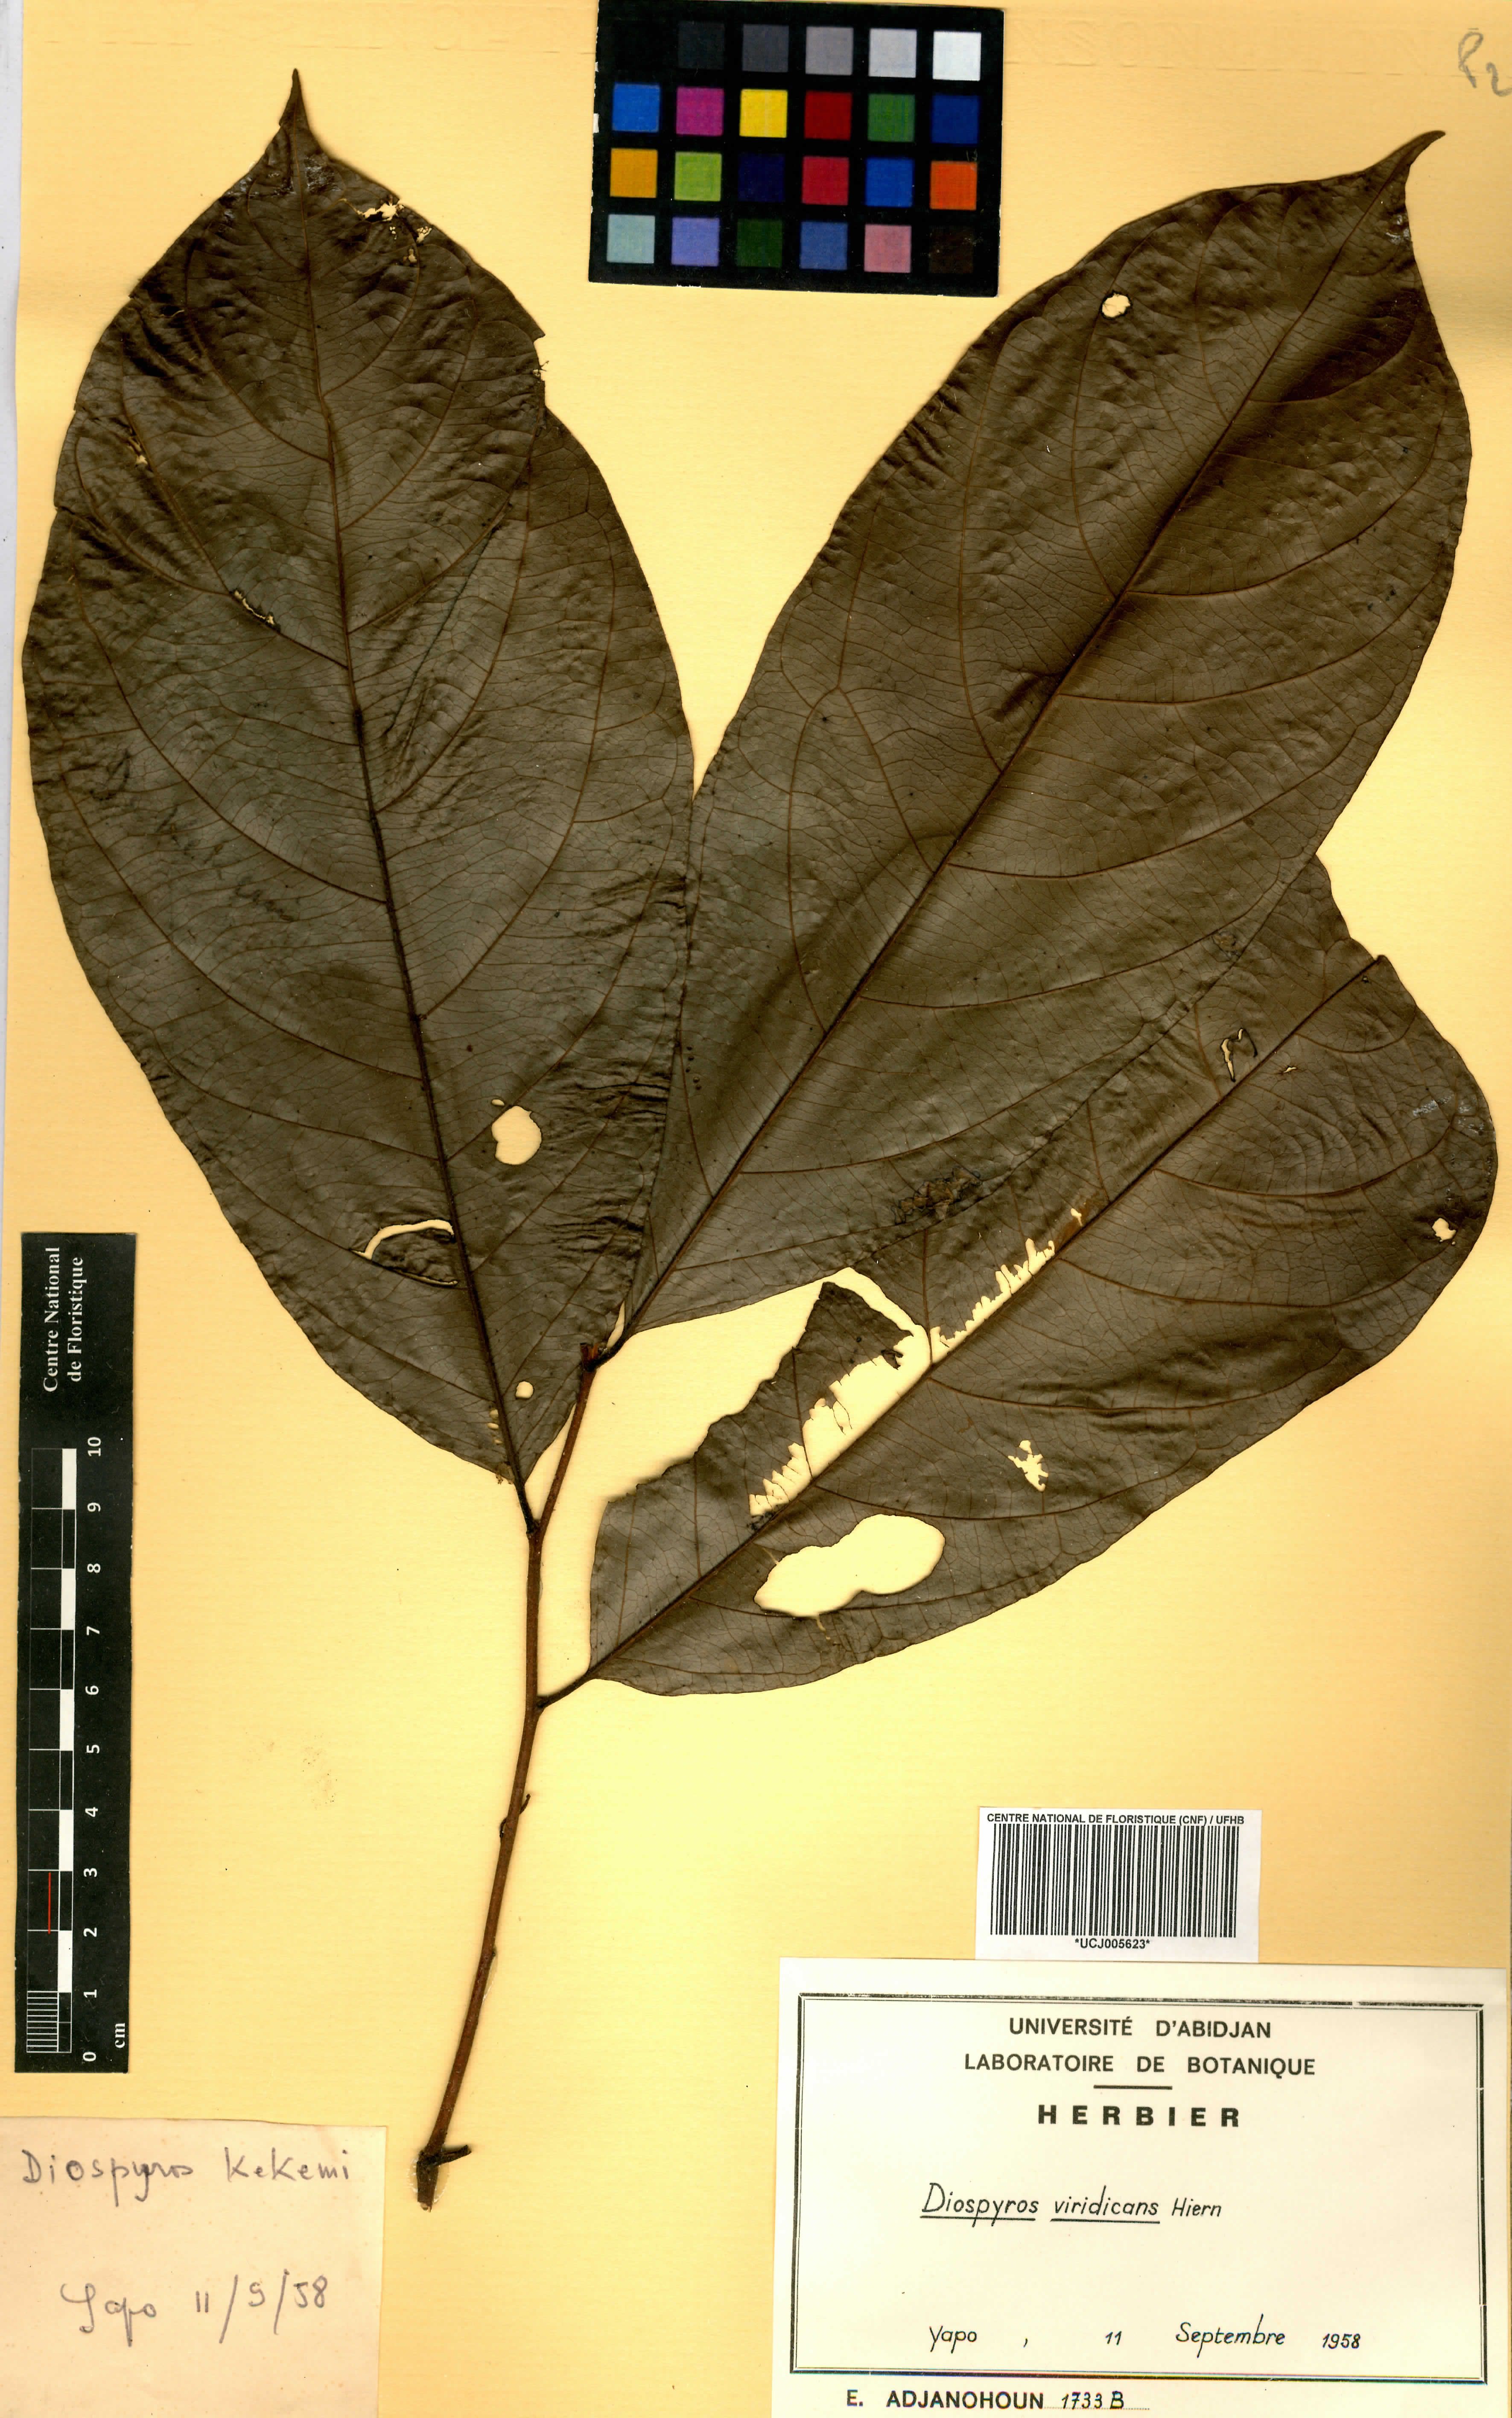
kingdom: Plantae
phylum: Tracheophyta
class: Magnoliopsida
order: Ericales
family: Ebenaceae
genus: Diospyros
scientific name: Diospyros viridicans
